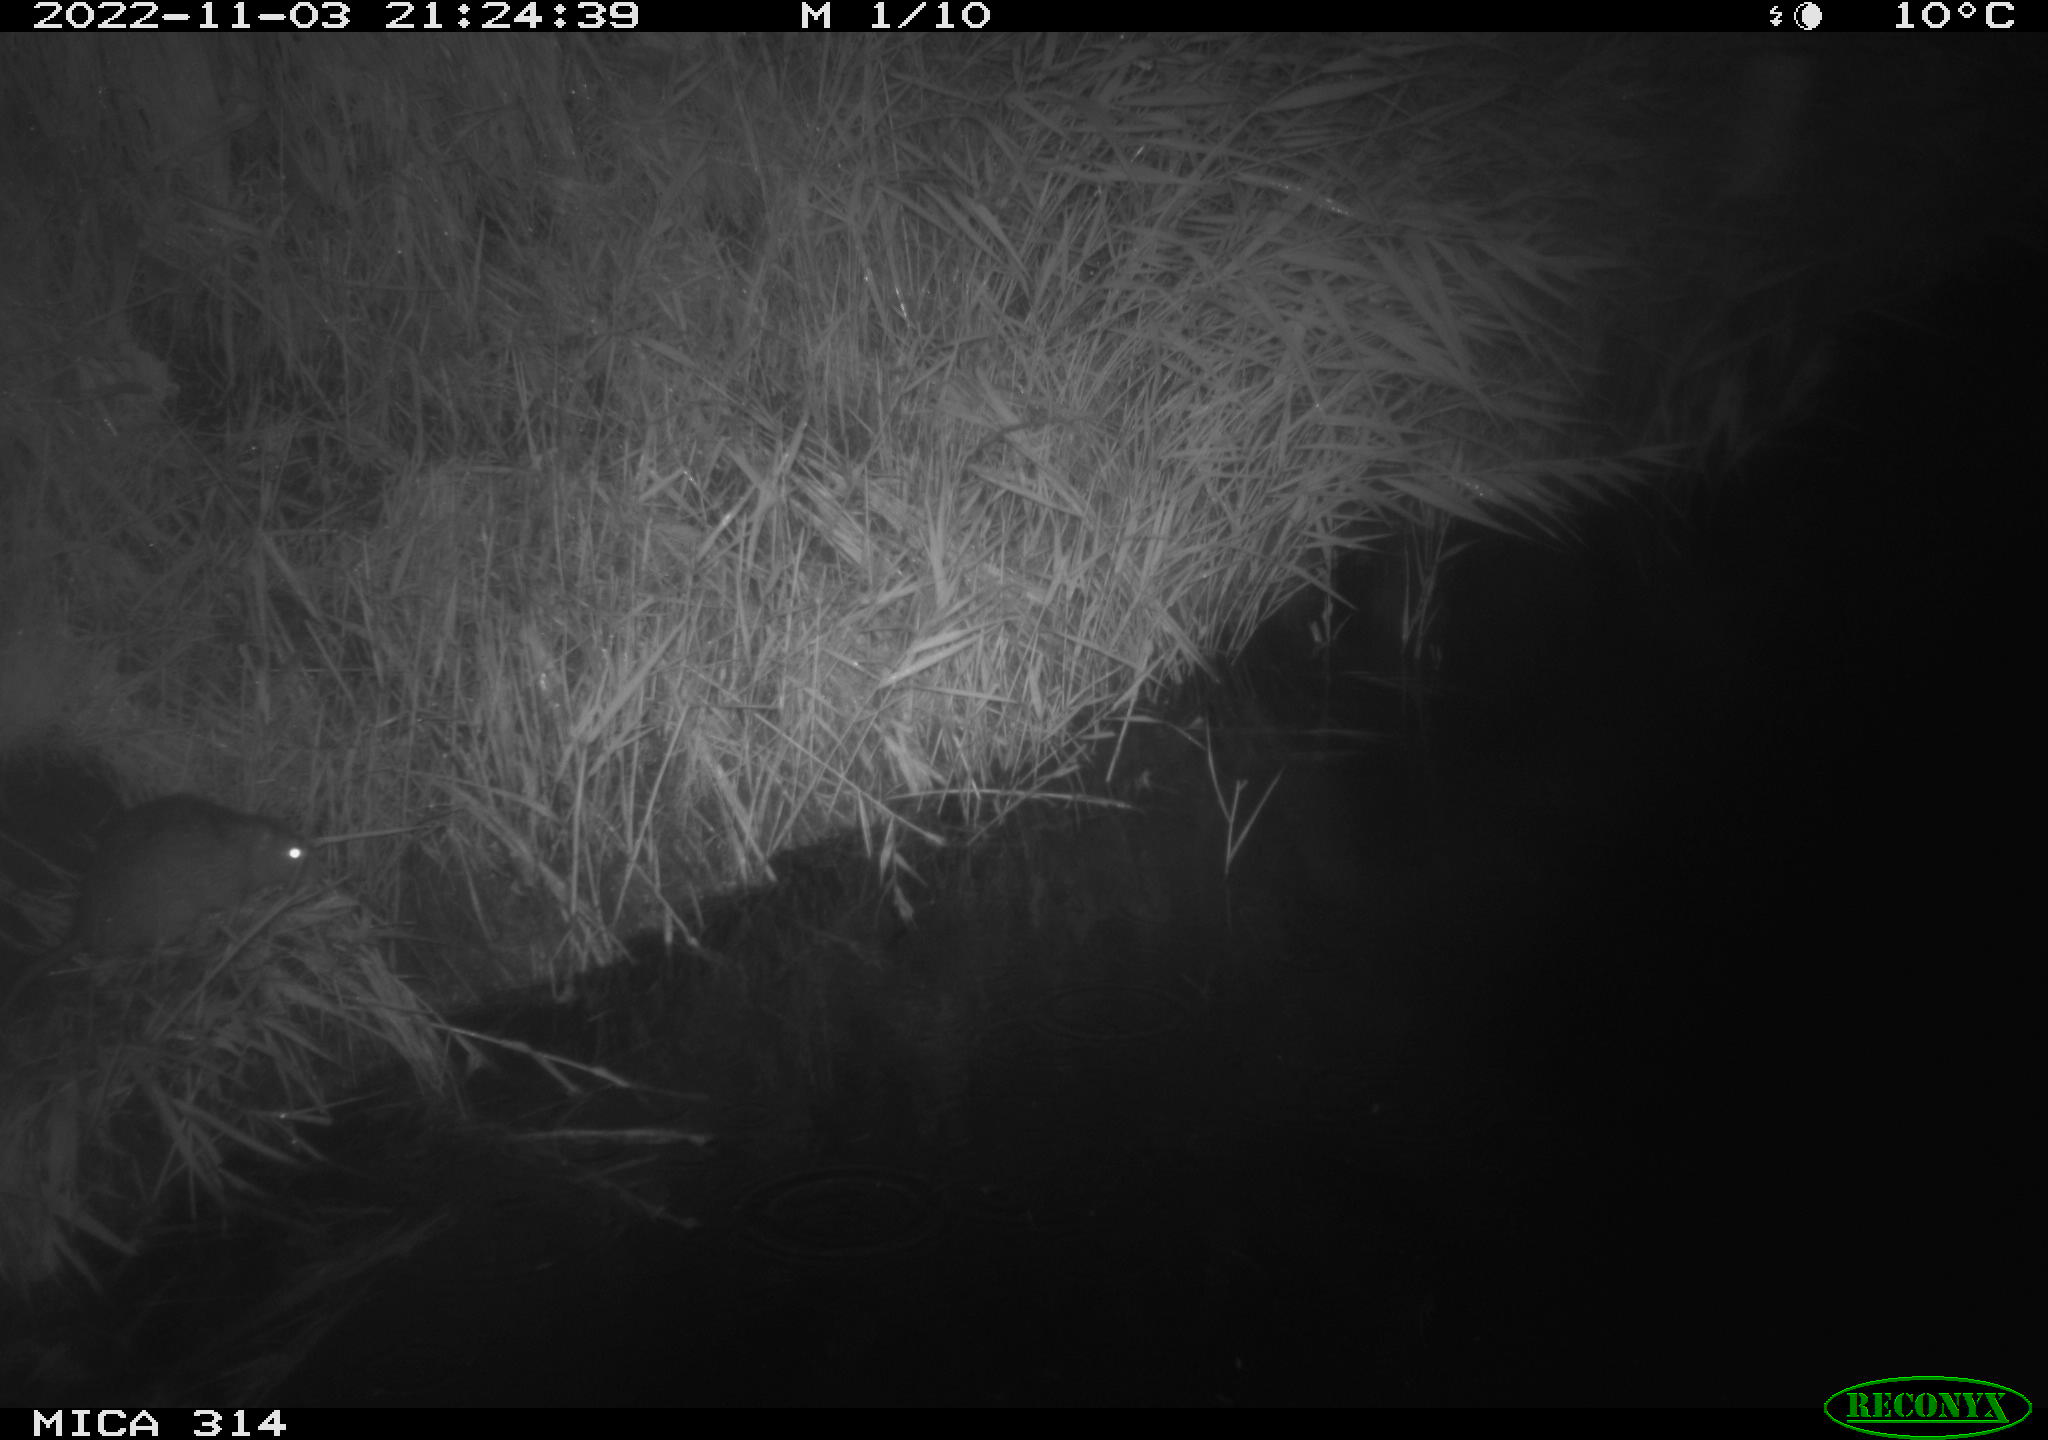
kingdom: Animalia
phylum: Chordata
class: Mammalia
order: Rodentia
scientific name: Rodentia
